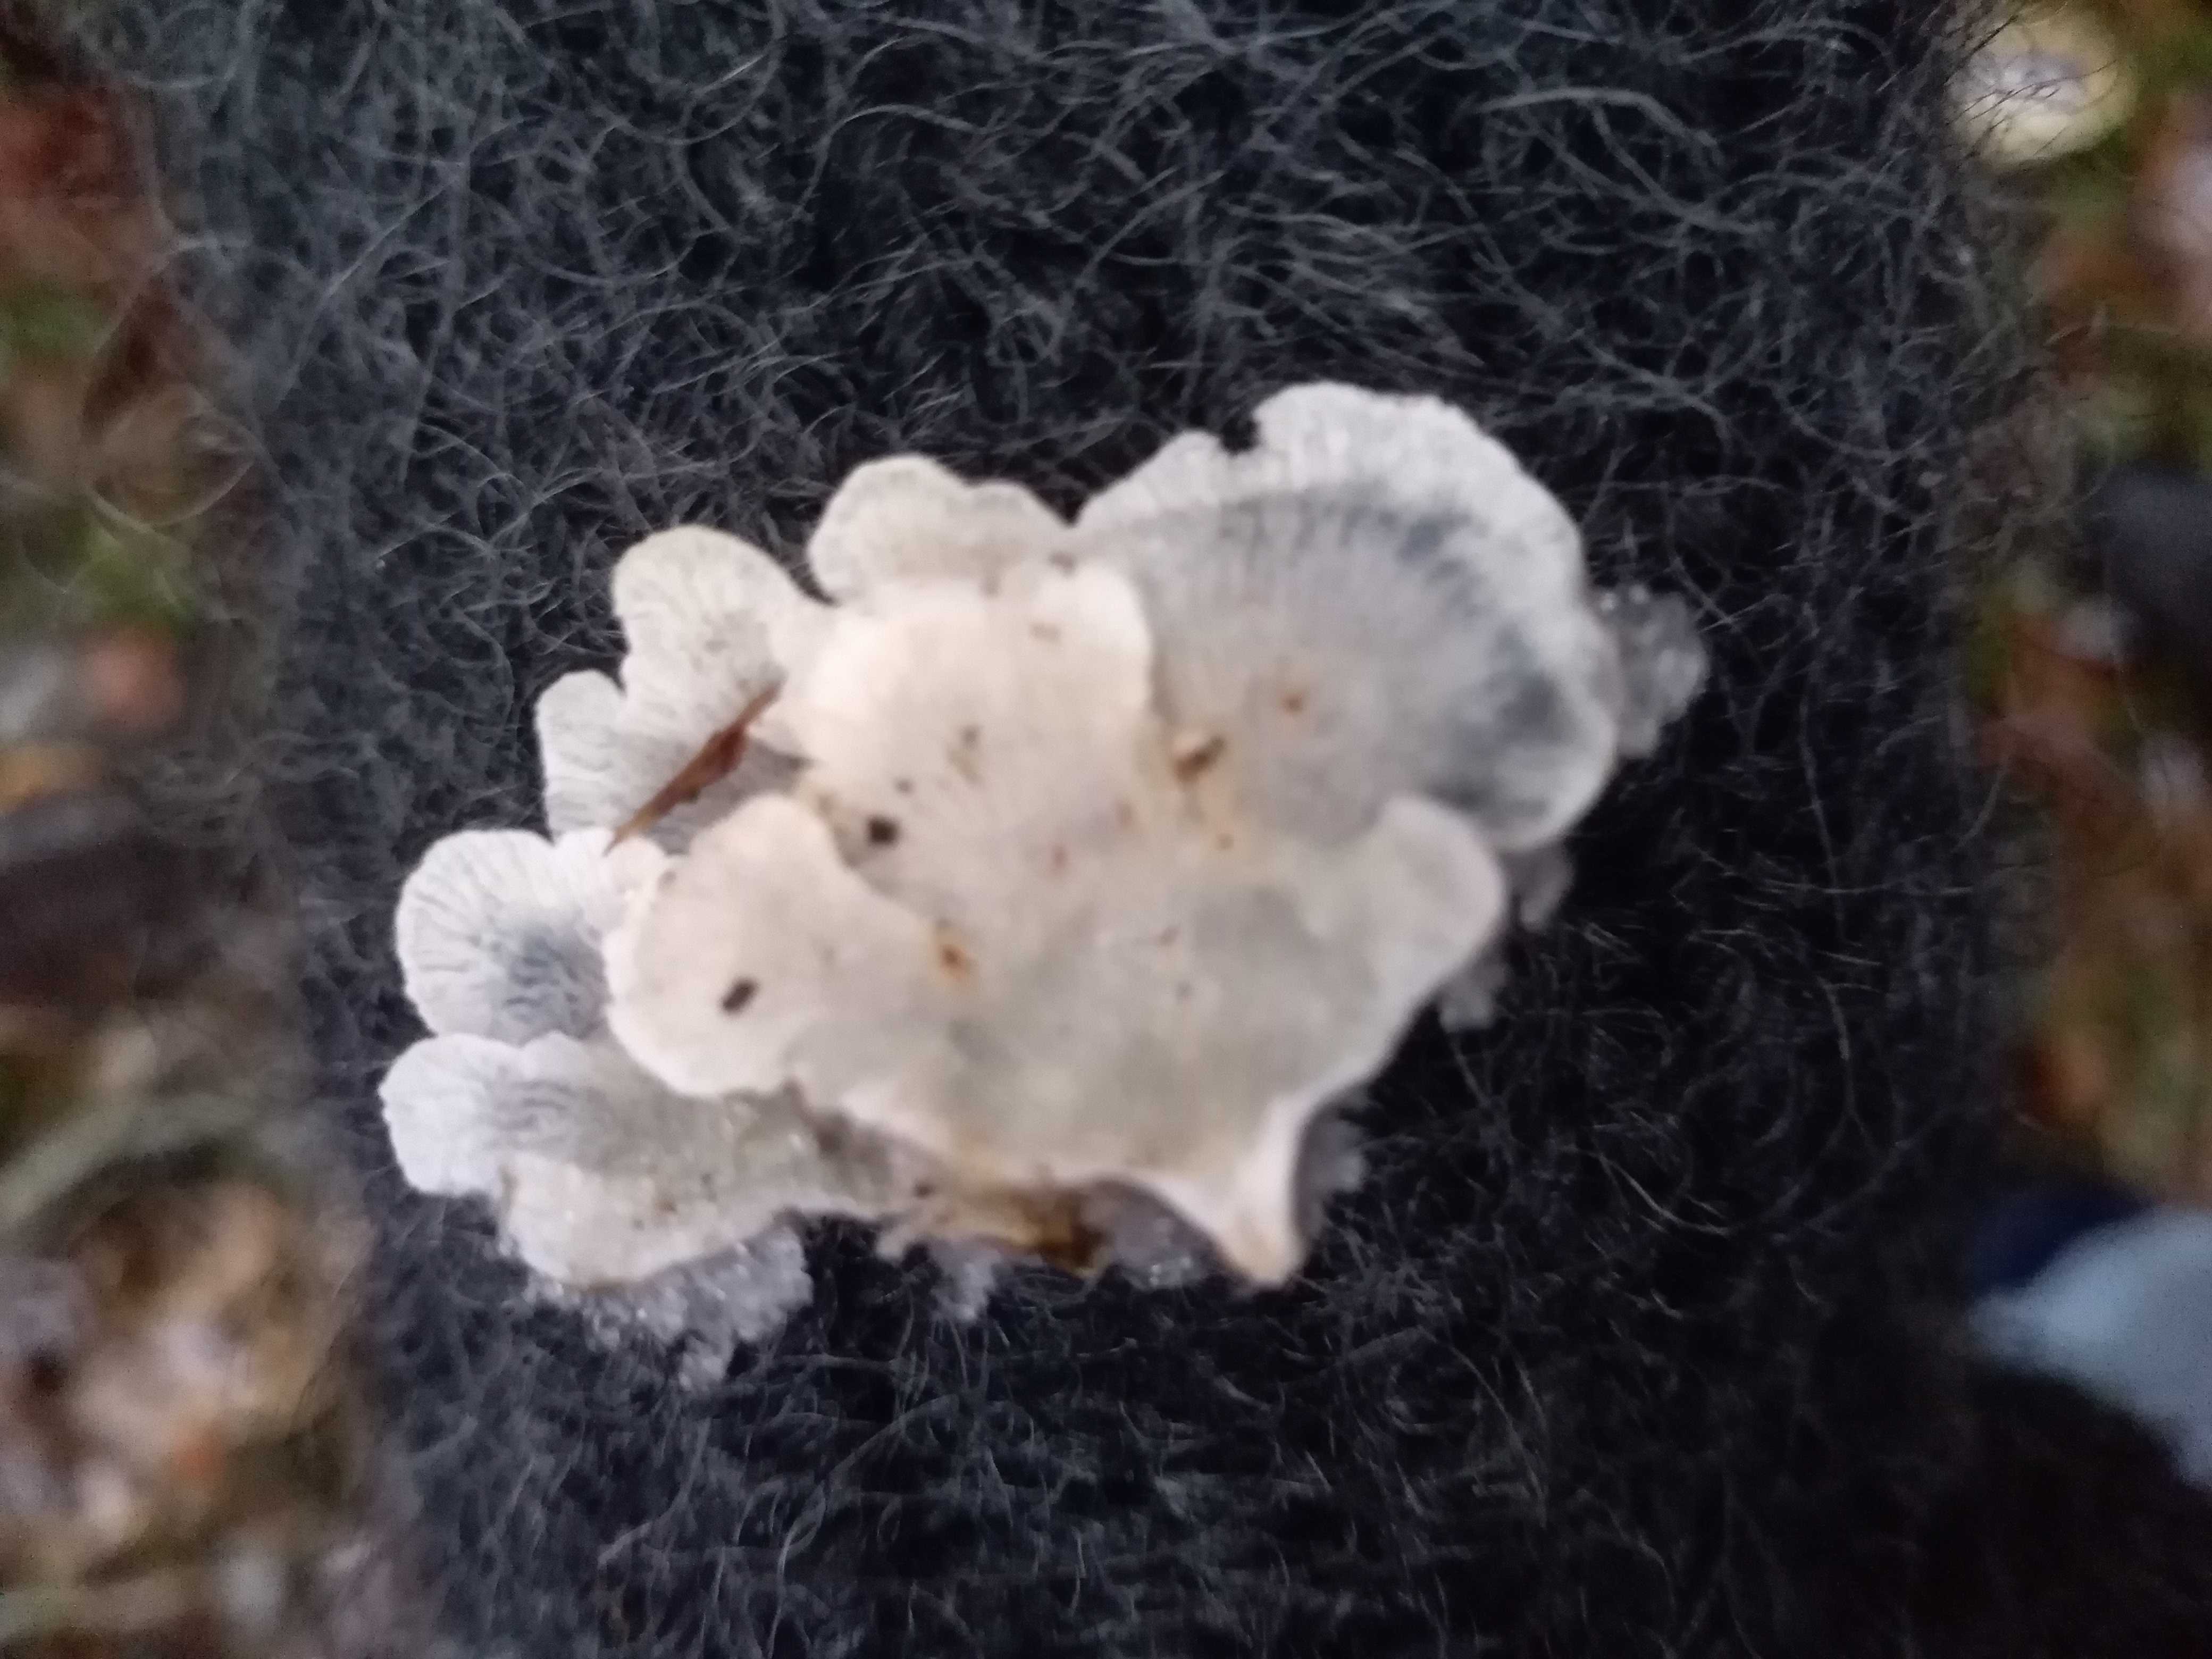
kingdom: Fungi
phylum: Basidiomycota
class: Agaricomycetes
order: Amylocorticiales
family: Amylocorticiaceae
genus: Plicaturopsis
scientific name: Plicaturopsis crispa
